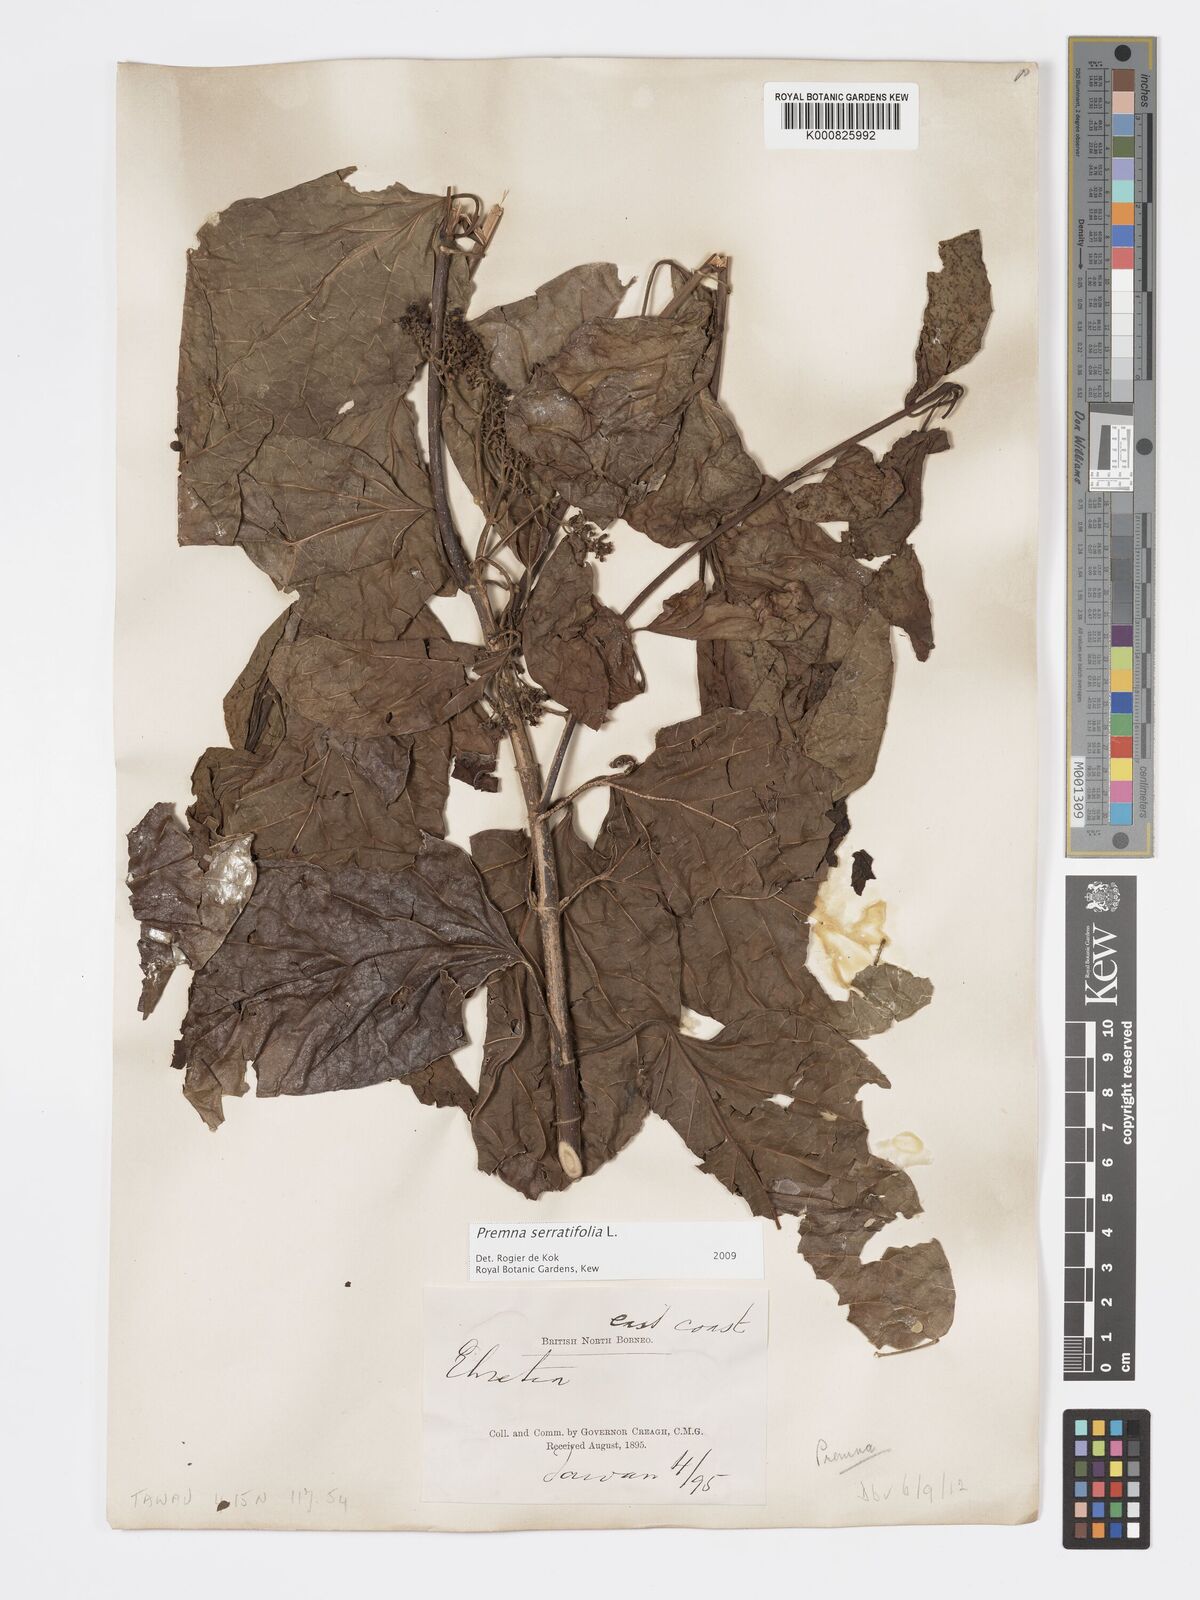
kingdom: Plantae
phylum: Tracheophyta
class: Magnoliopsida
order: Lamiales
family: Lamiaceae
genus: Premna
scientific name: Premna serratifolia
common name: Bastard guelder
